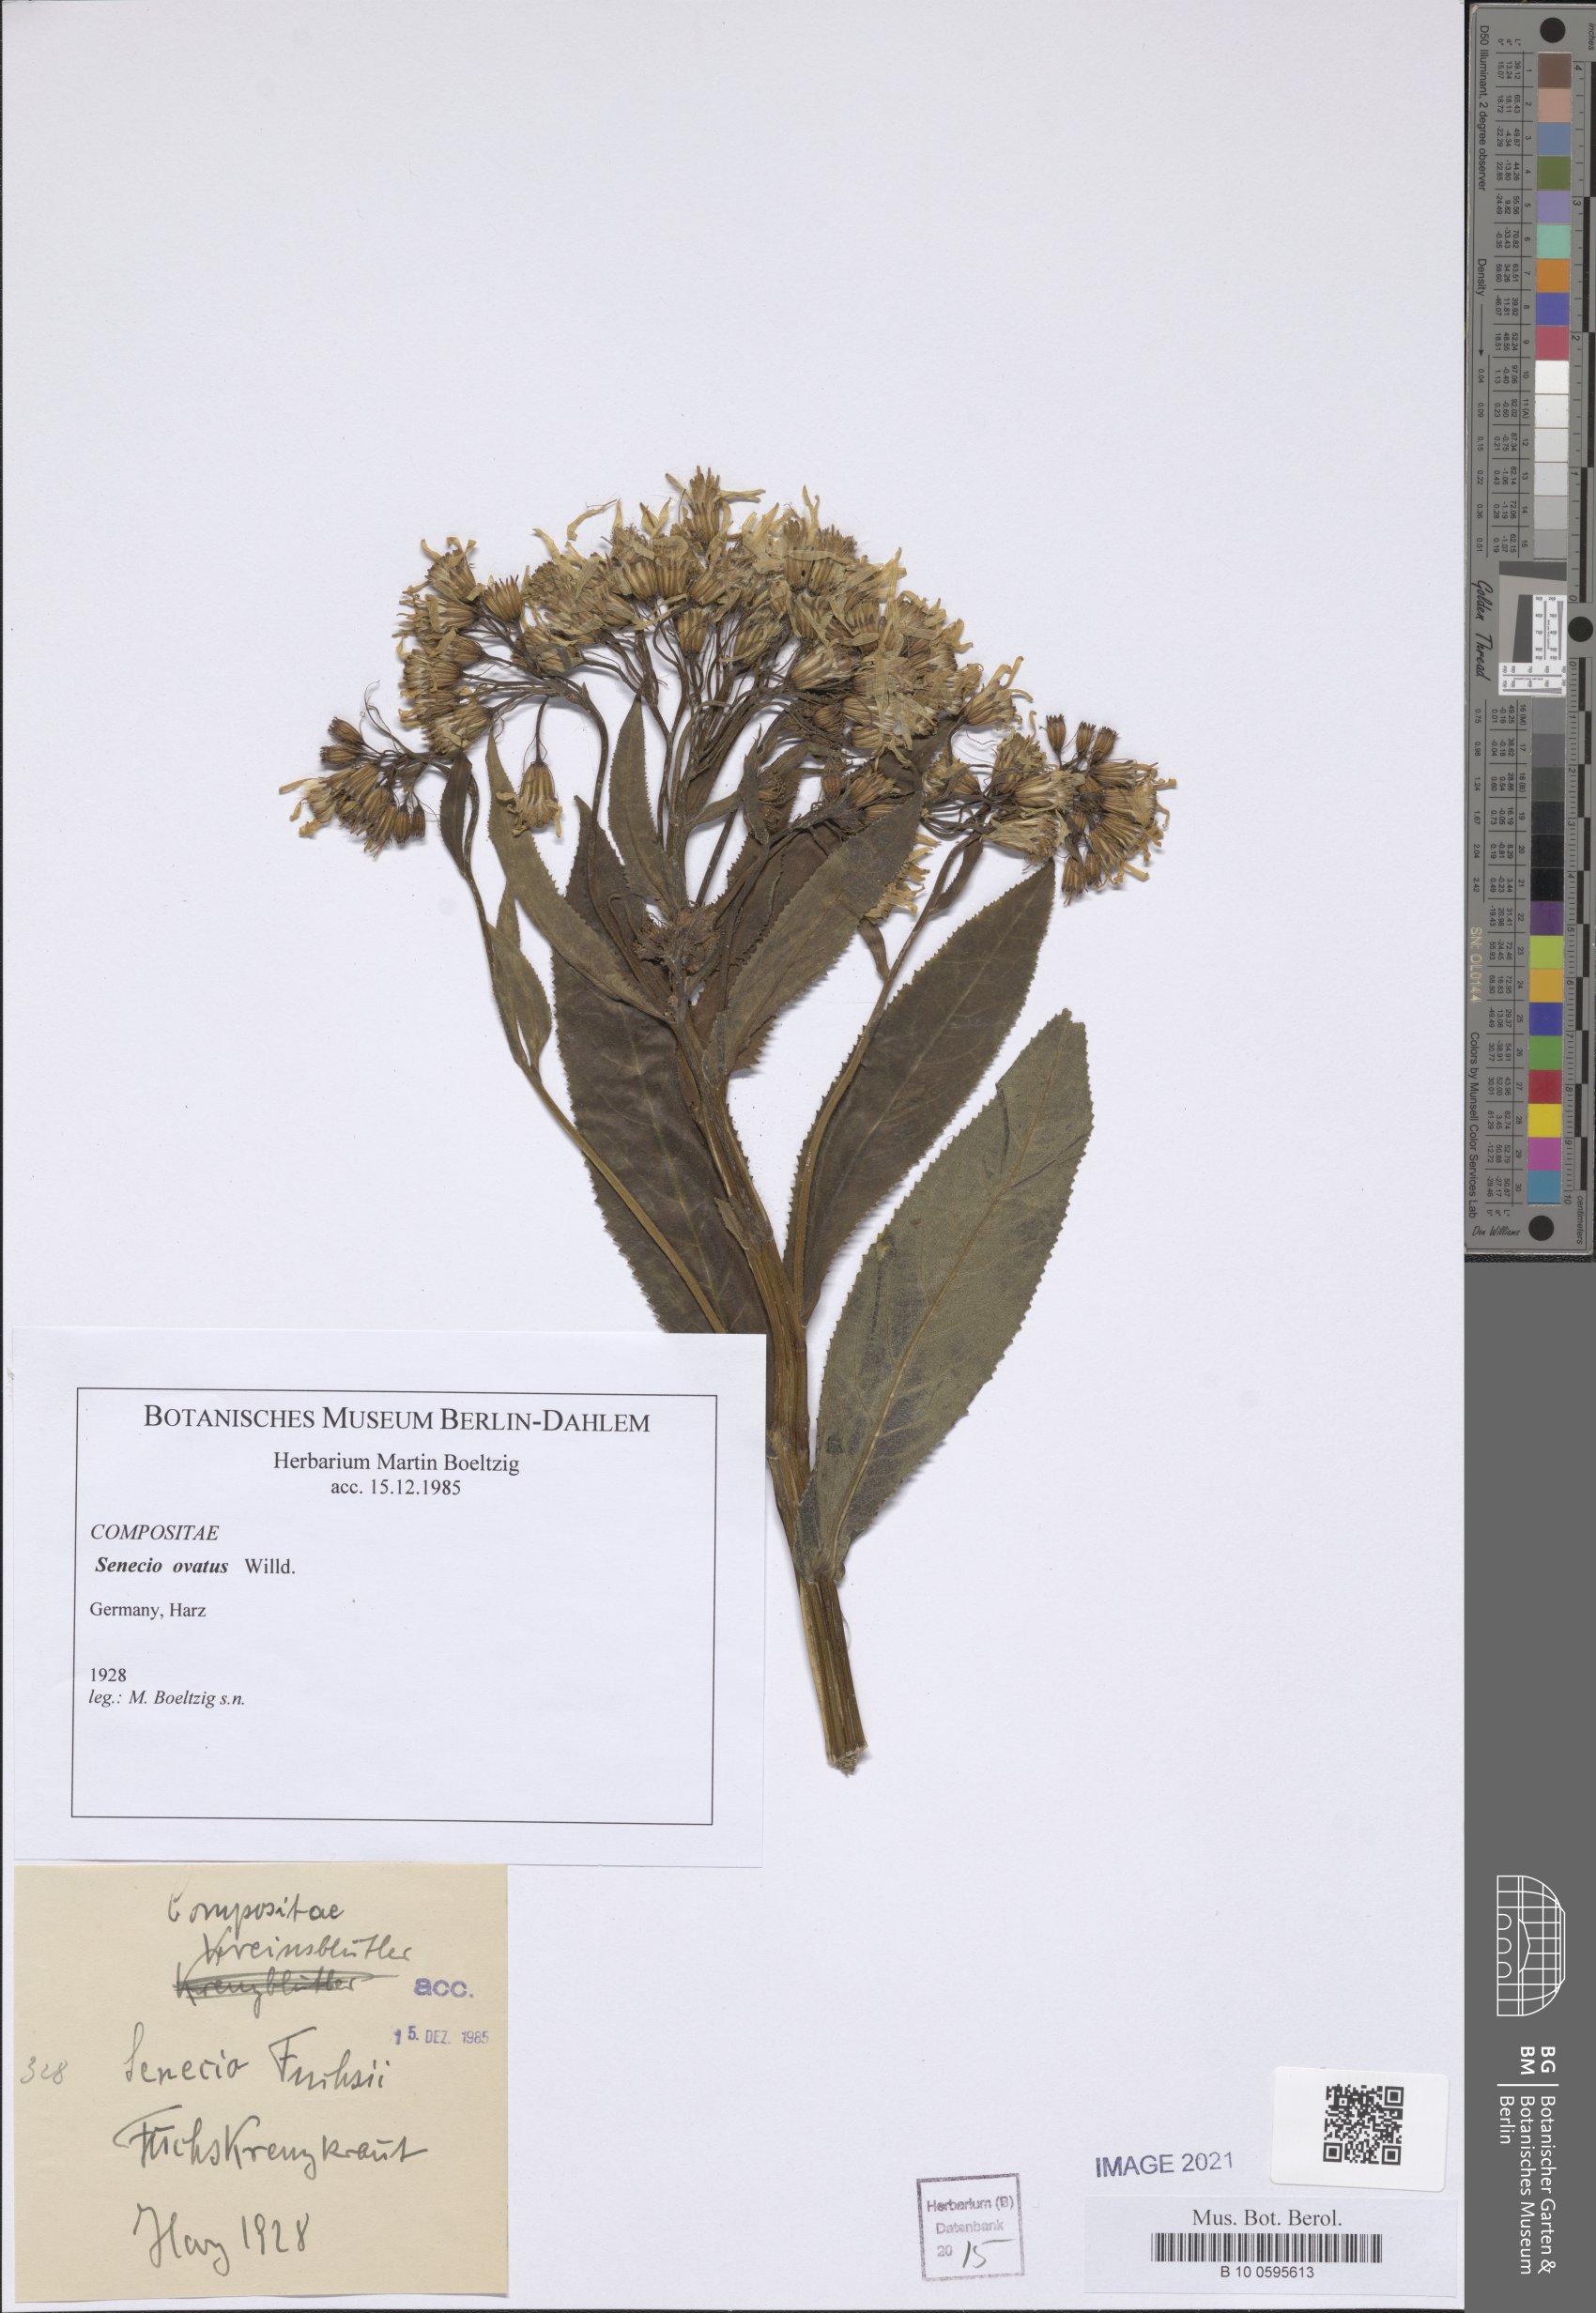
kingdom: Plantae
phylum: Tracheophyta
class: Magnoliopsida
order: Asterales
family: Asteraceae
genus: Senecio
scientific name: Senecio ovatus
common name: Wood ragwort
